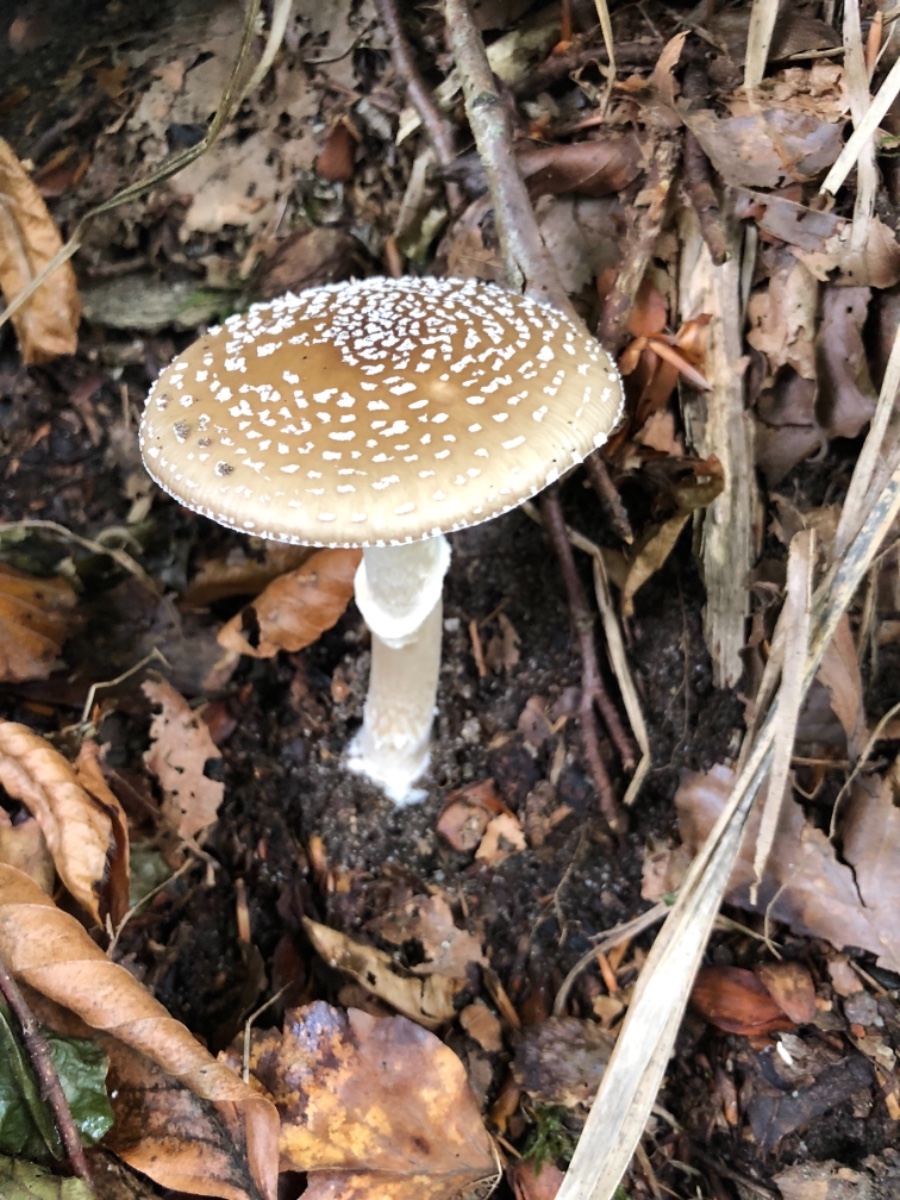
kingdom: Fungi
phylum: Basidiomycota
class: Agaricomycetes
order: Agaricales
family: Amanitaceae
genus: Amanita
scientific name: Amanita pantherina
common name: panter-fluesvamp
